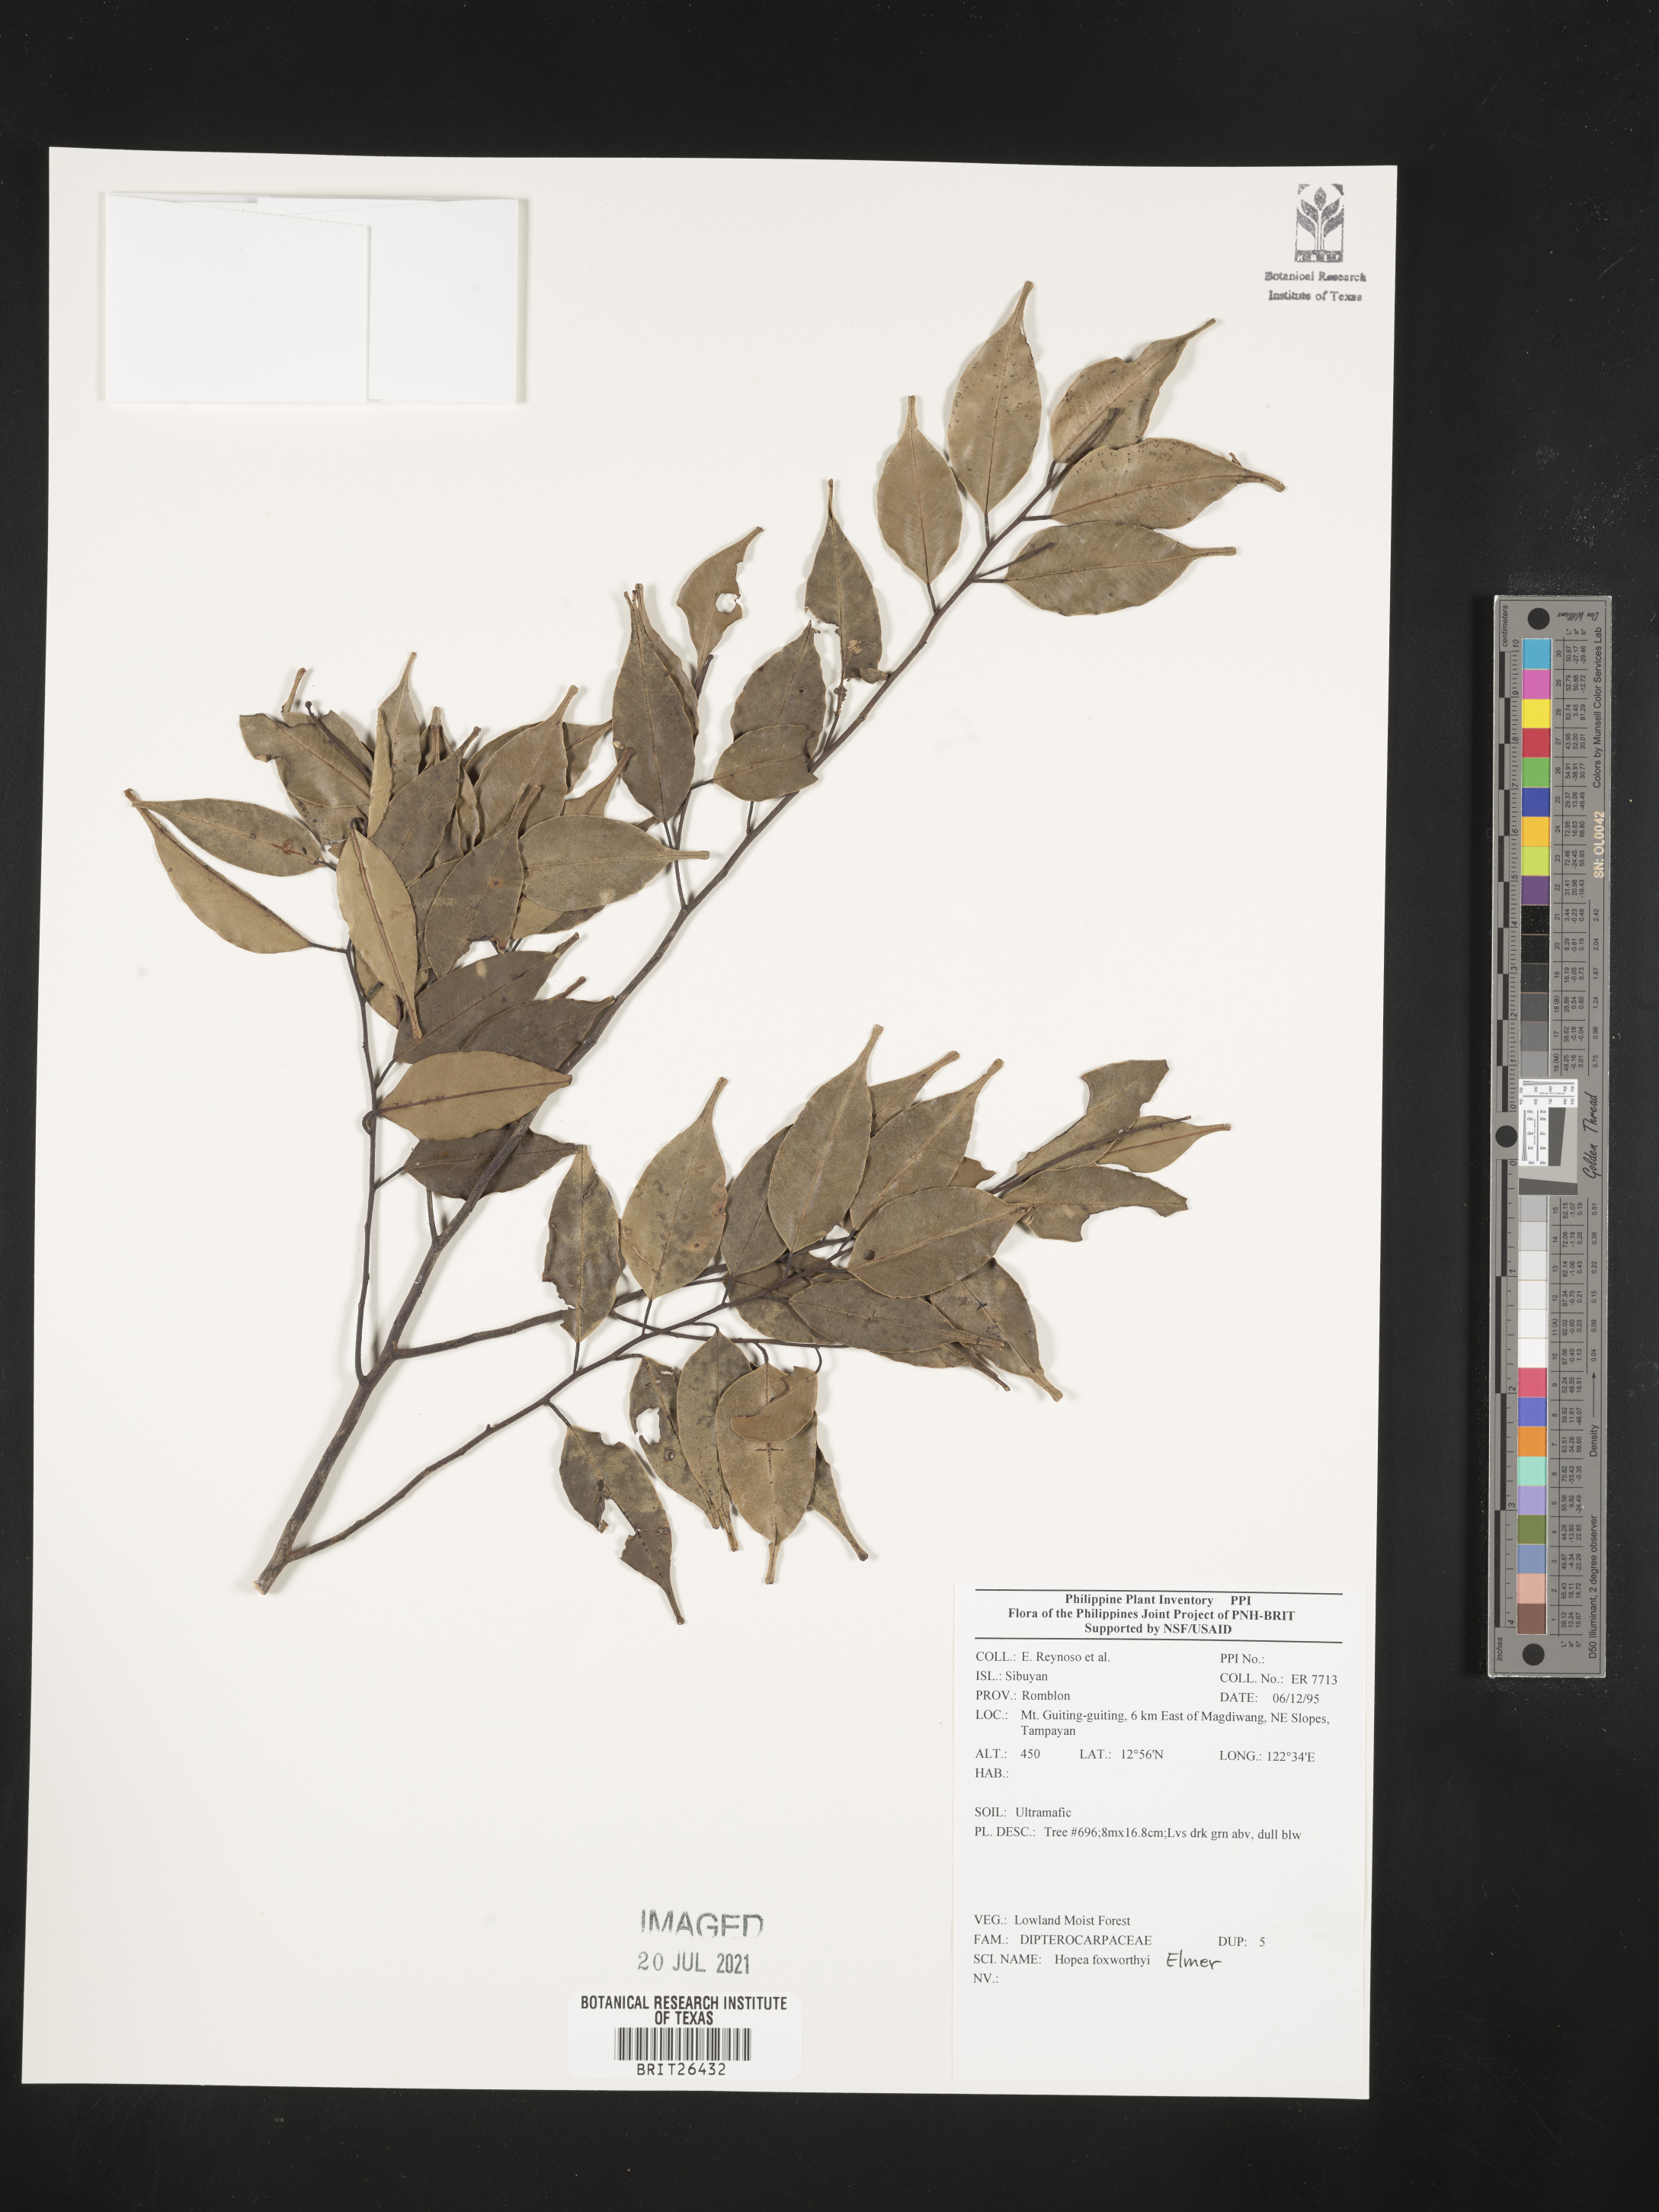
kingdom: Plantae
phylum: Tracheophyta
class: Magnoliopsida
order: Malvales
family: Dipterocarpaceae
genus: Hopea
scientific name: Hopea foxworthyi
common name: Dalingdingan
